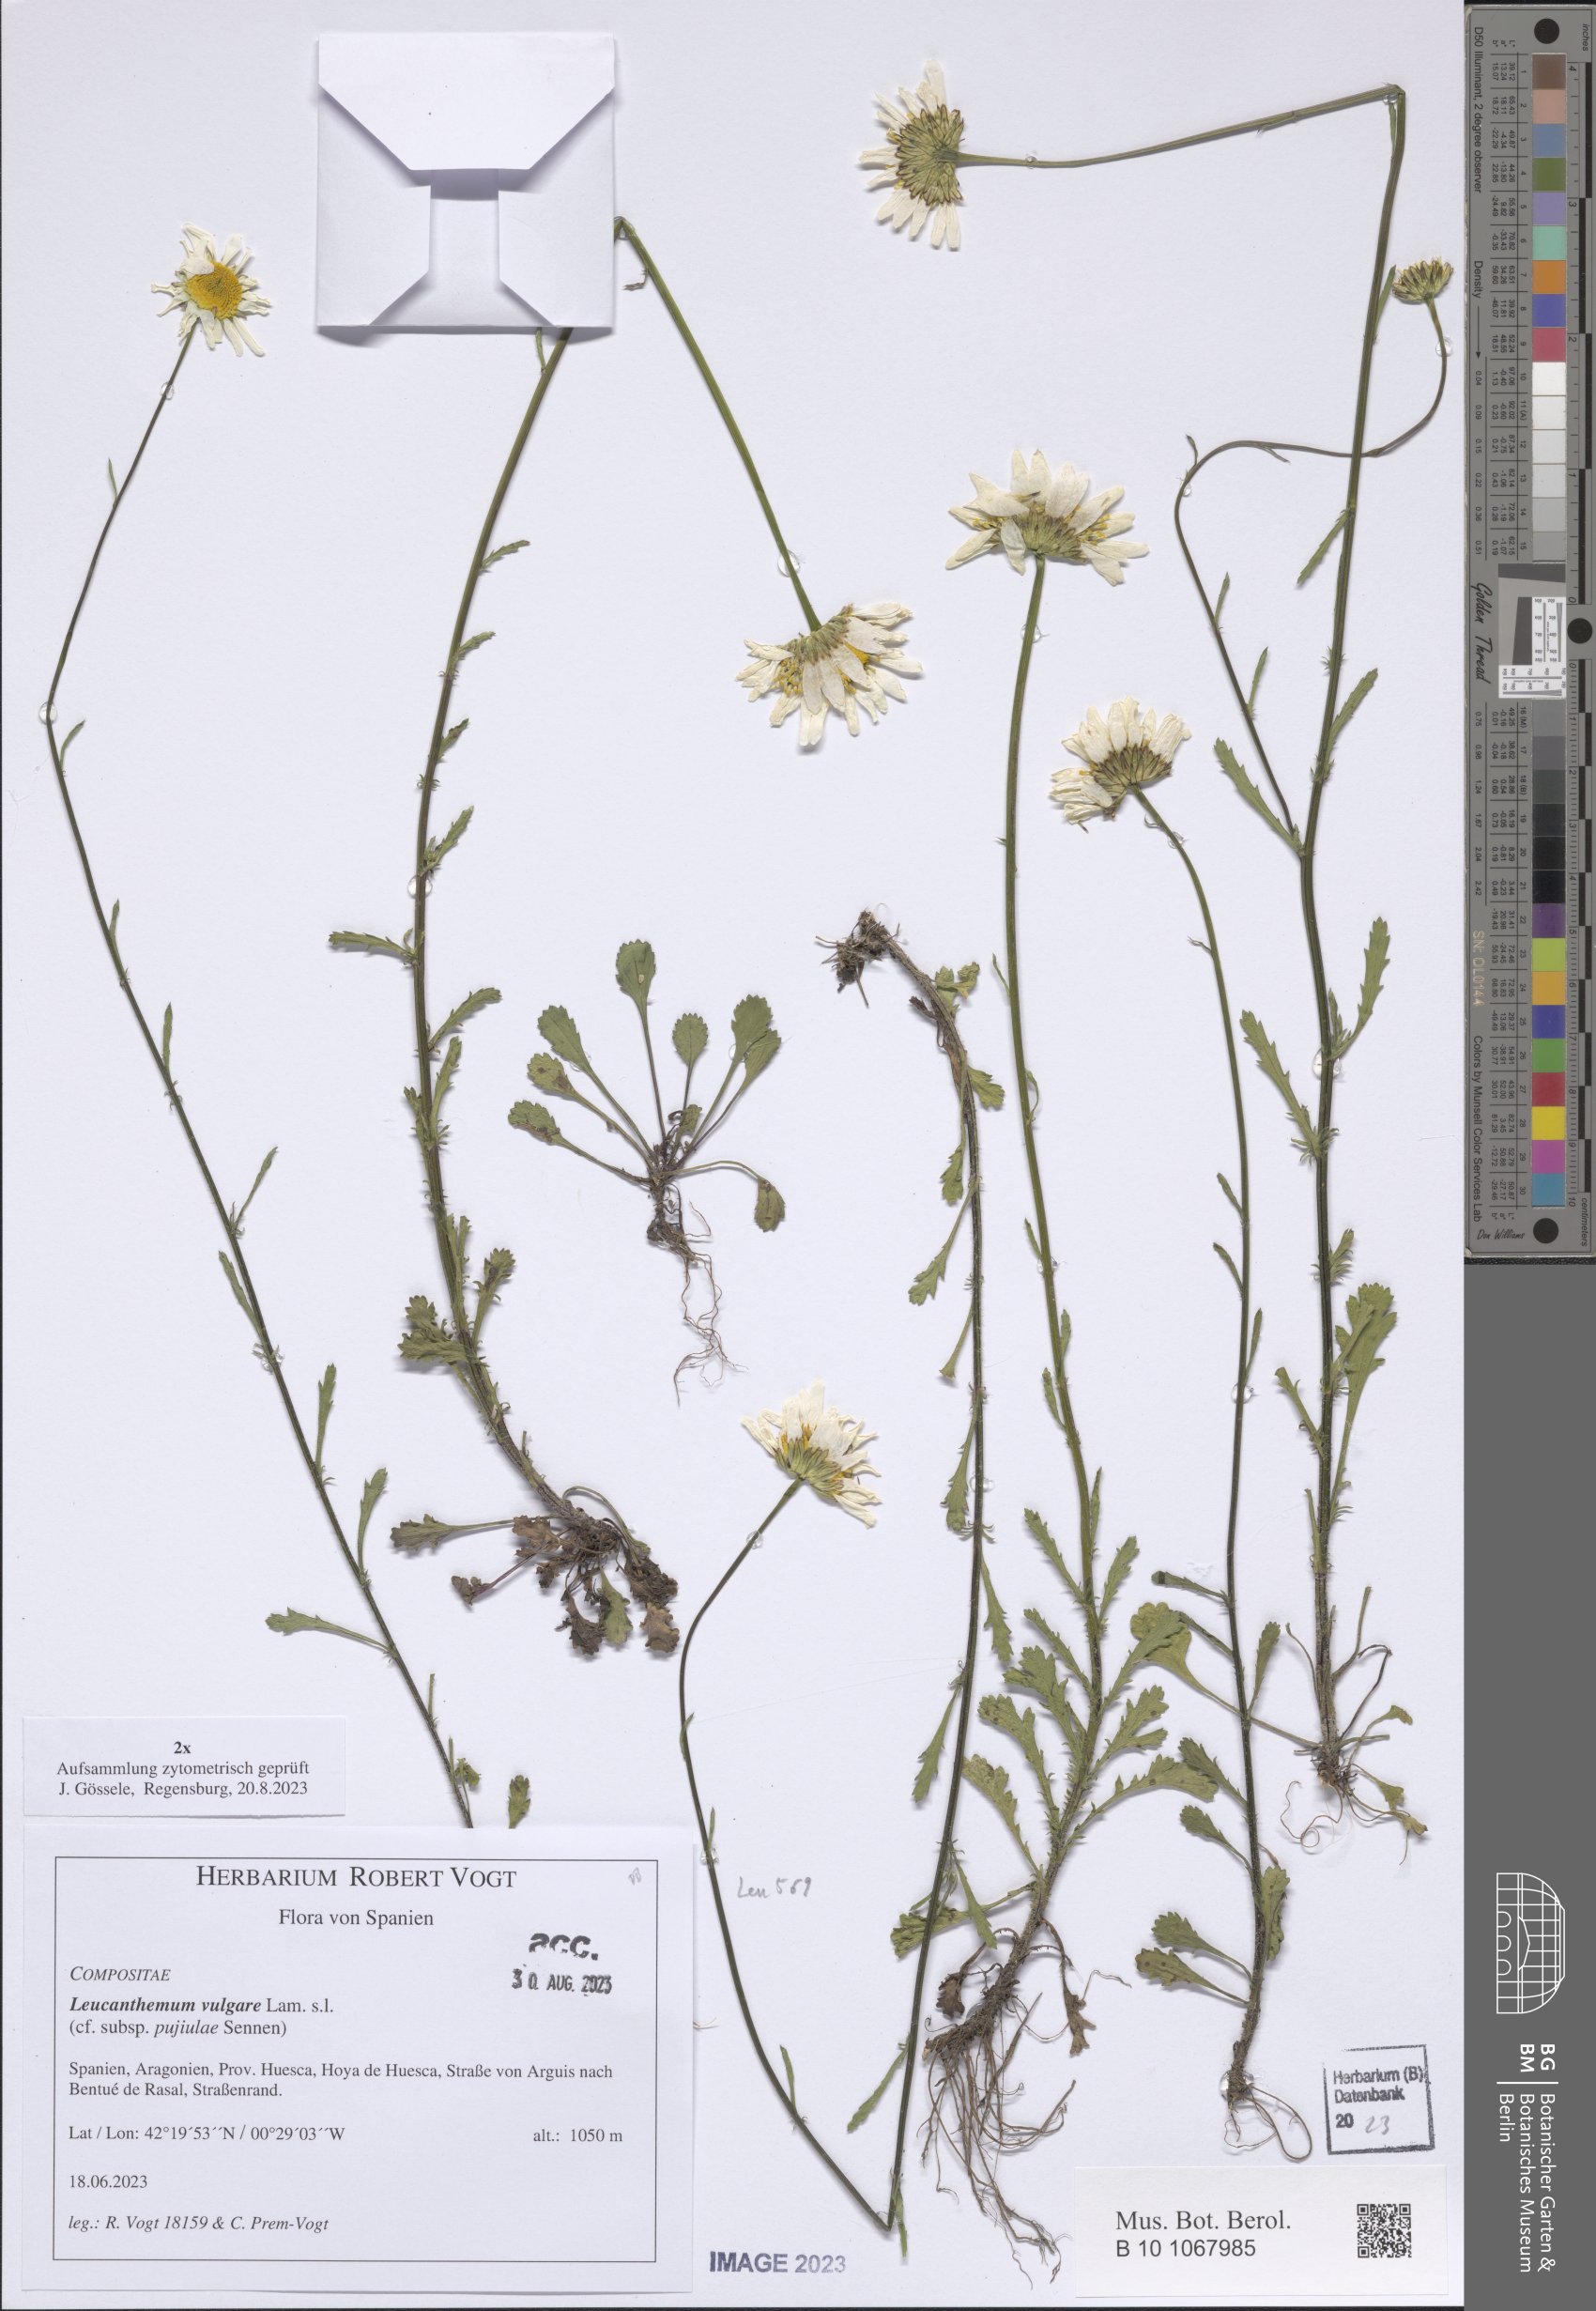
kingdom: Plantae
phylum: Tracheophyta
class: Magnoliopsida
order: Asterales
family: Asteraceae
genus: Leucanthemum
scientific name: Leucanthemum vulgare
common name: Oxeye daisy
